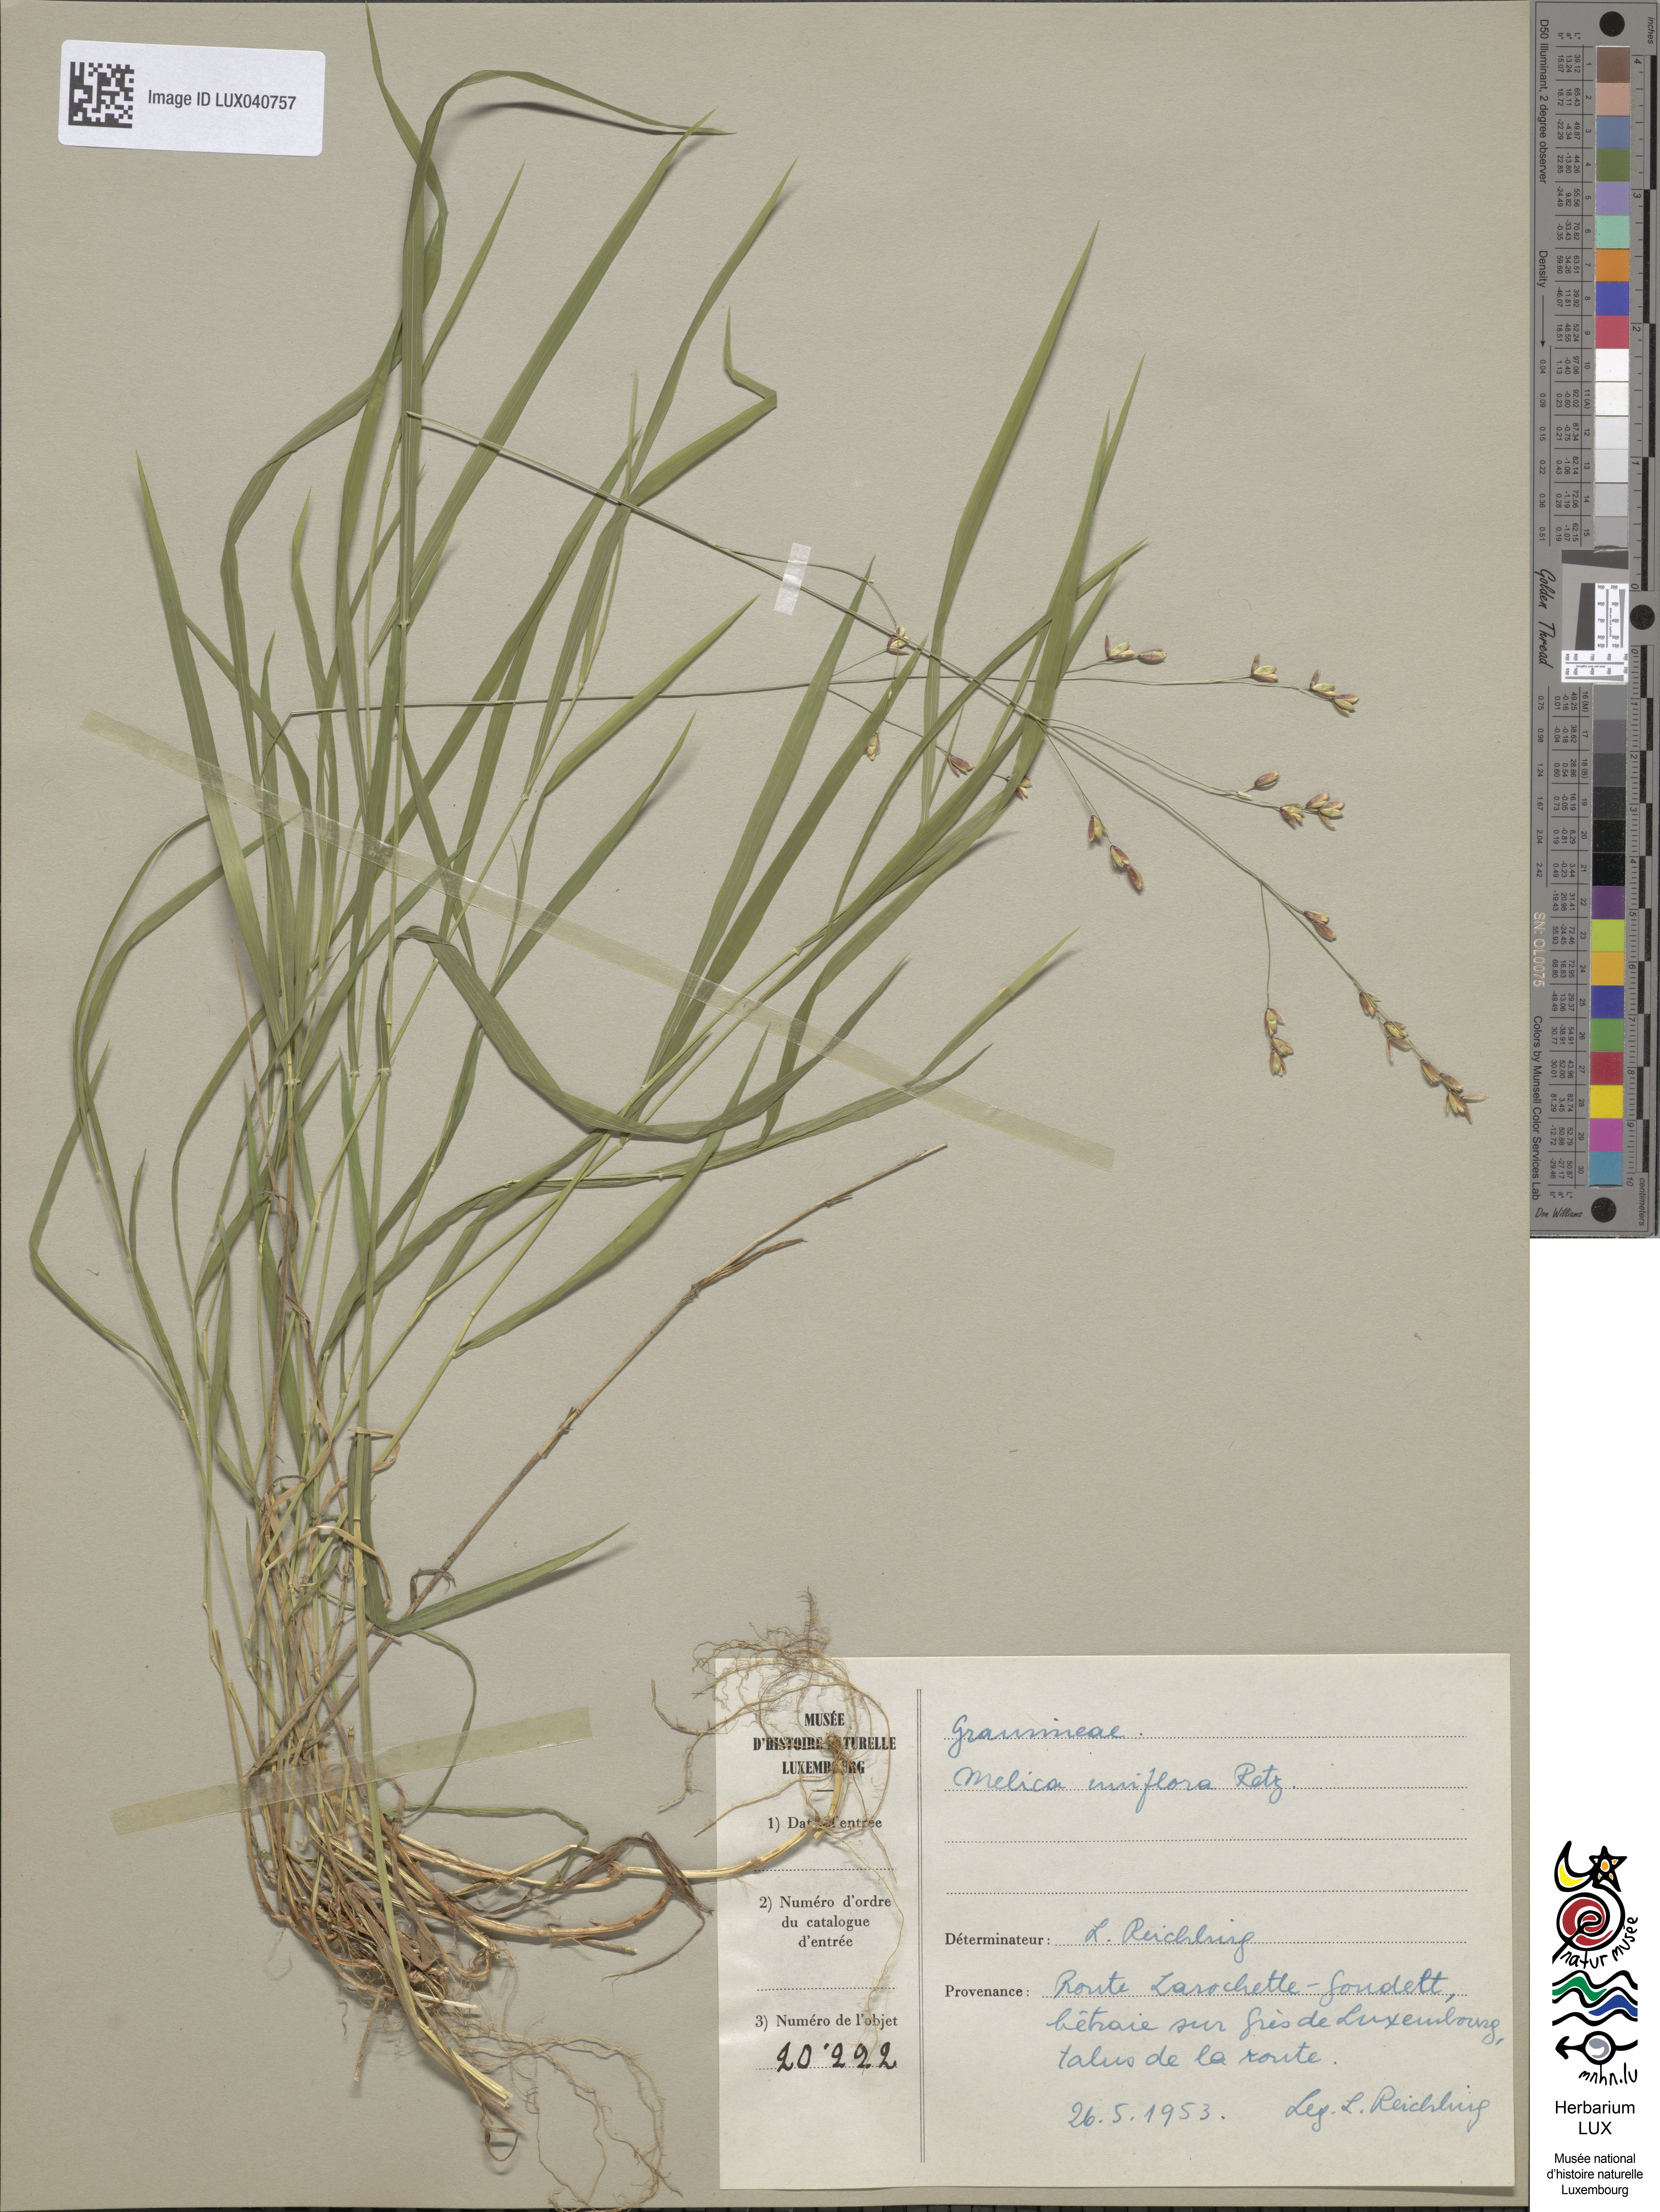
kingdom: Plantae
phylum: Tracheophyta
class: Liliopsida
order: Poales
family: Poaceae
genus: Melica
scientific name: Melica uniflora
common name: Wood melick
